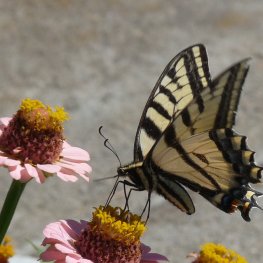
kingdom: Animalia
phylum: Arthropoda
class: Insecta
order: Lepidoptera
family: Papilionidae
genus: Pterourus
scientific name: Pterourus rutulus
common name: Western Tiger Swallowtail
